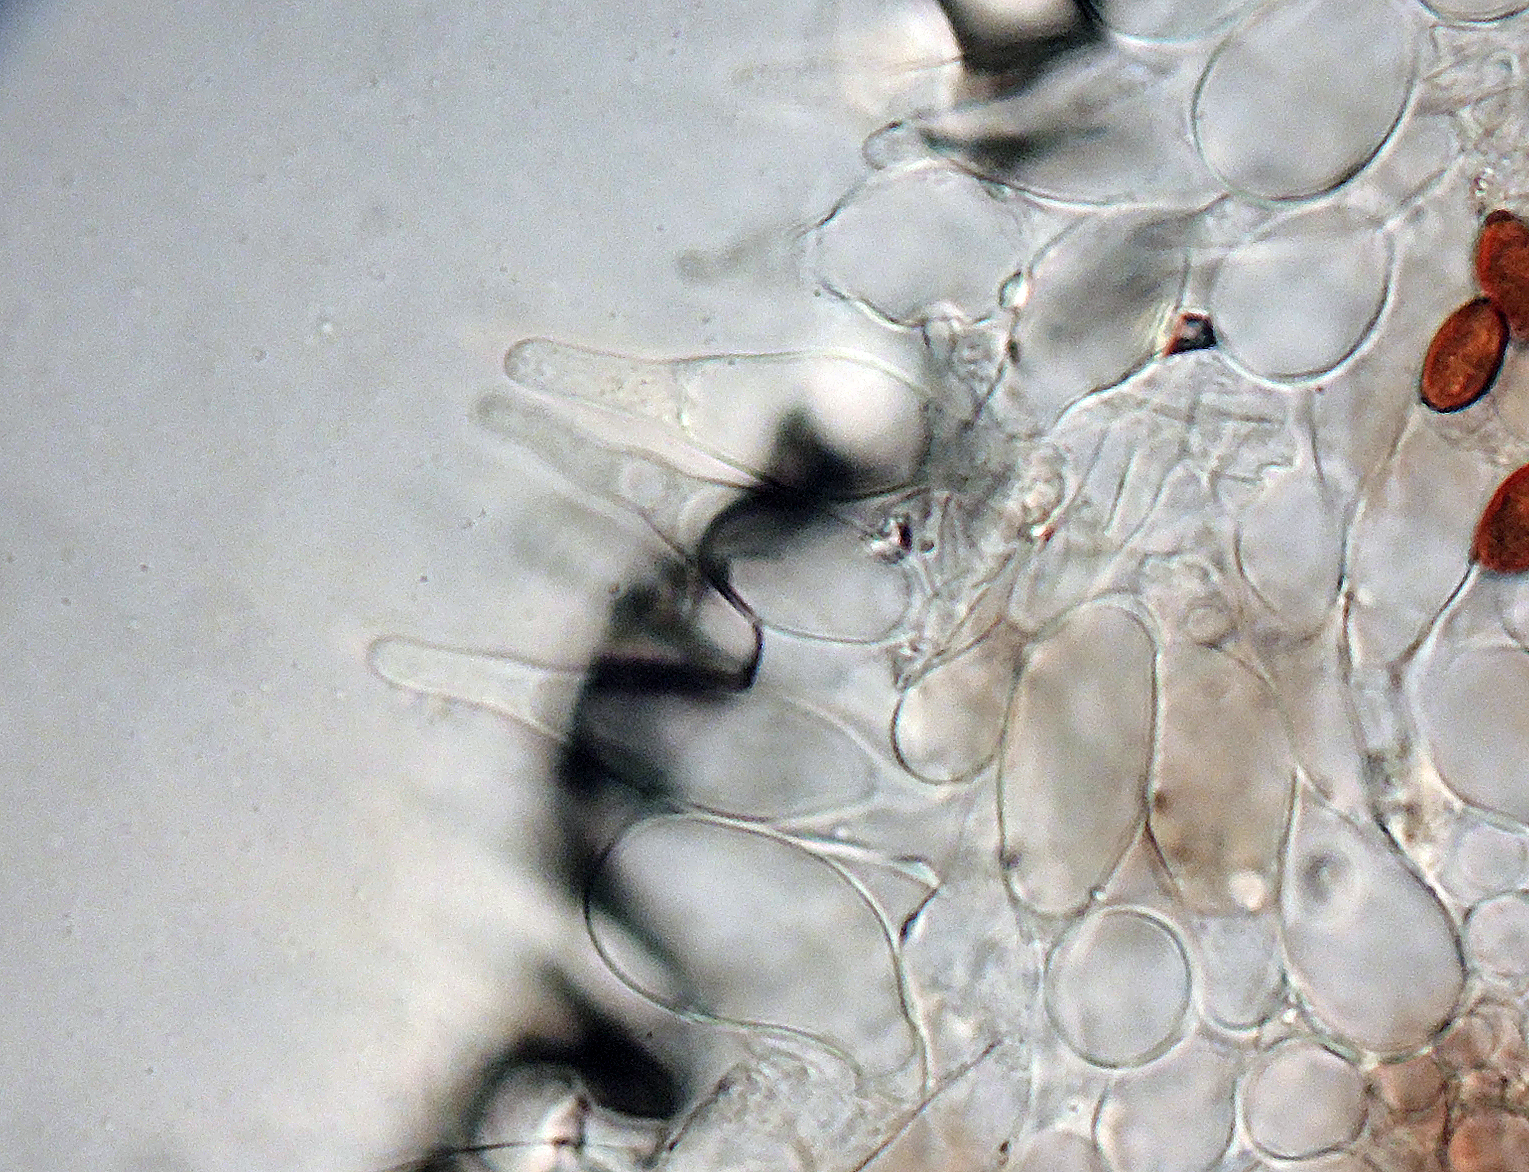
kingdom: Fungi
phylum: Basidiomycota
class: Agaricomycetes
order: Agaricales
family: Psathyrellaceae
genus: Psathyrella
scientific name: Psathyrella
